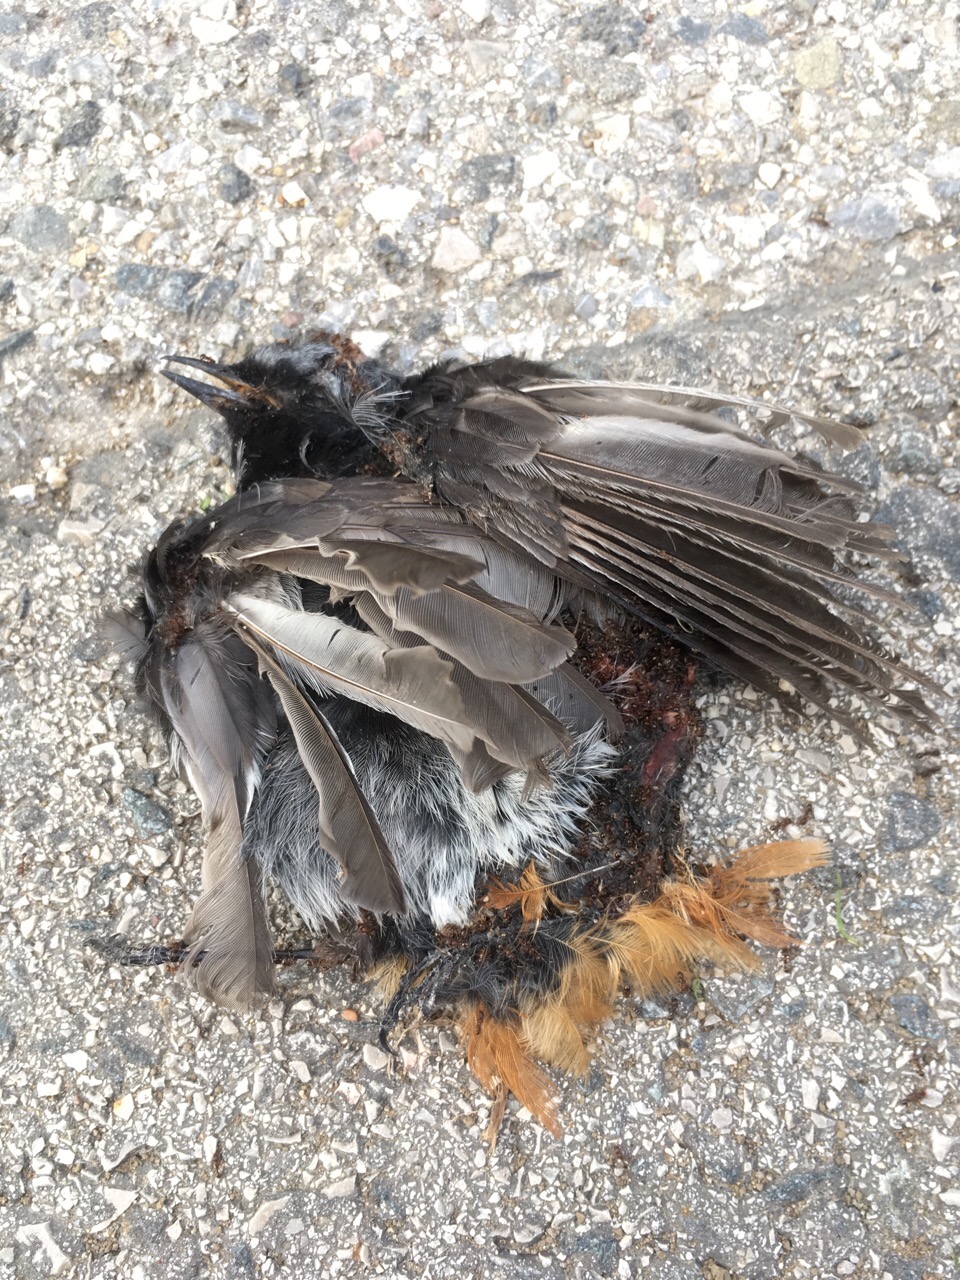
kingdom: Animalia
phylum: Chordata
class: Aves
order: Passeriformes
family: Muscicapidae
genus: Phoenicurus
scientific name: Phoenicurus ochruros
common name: Black redstart
